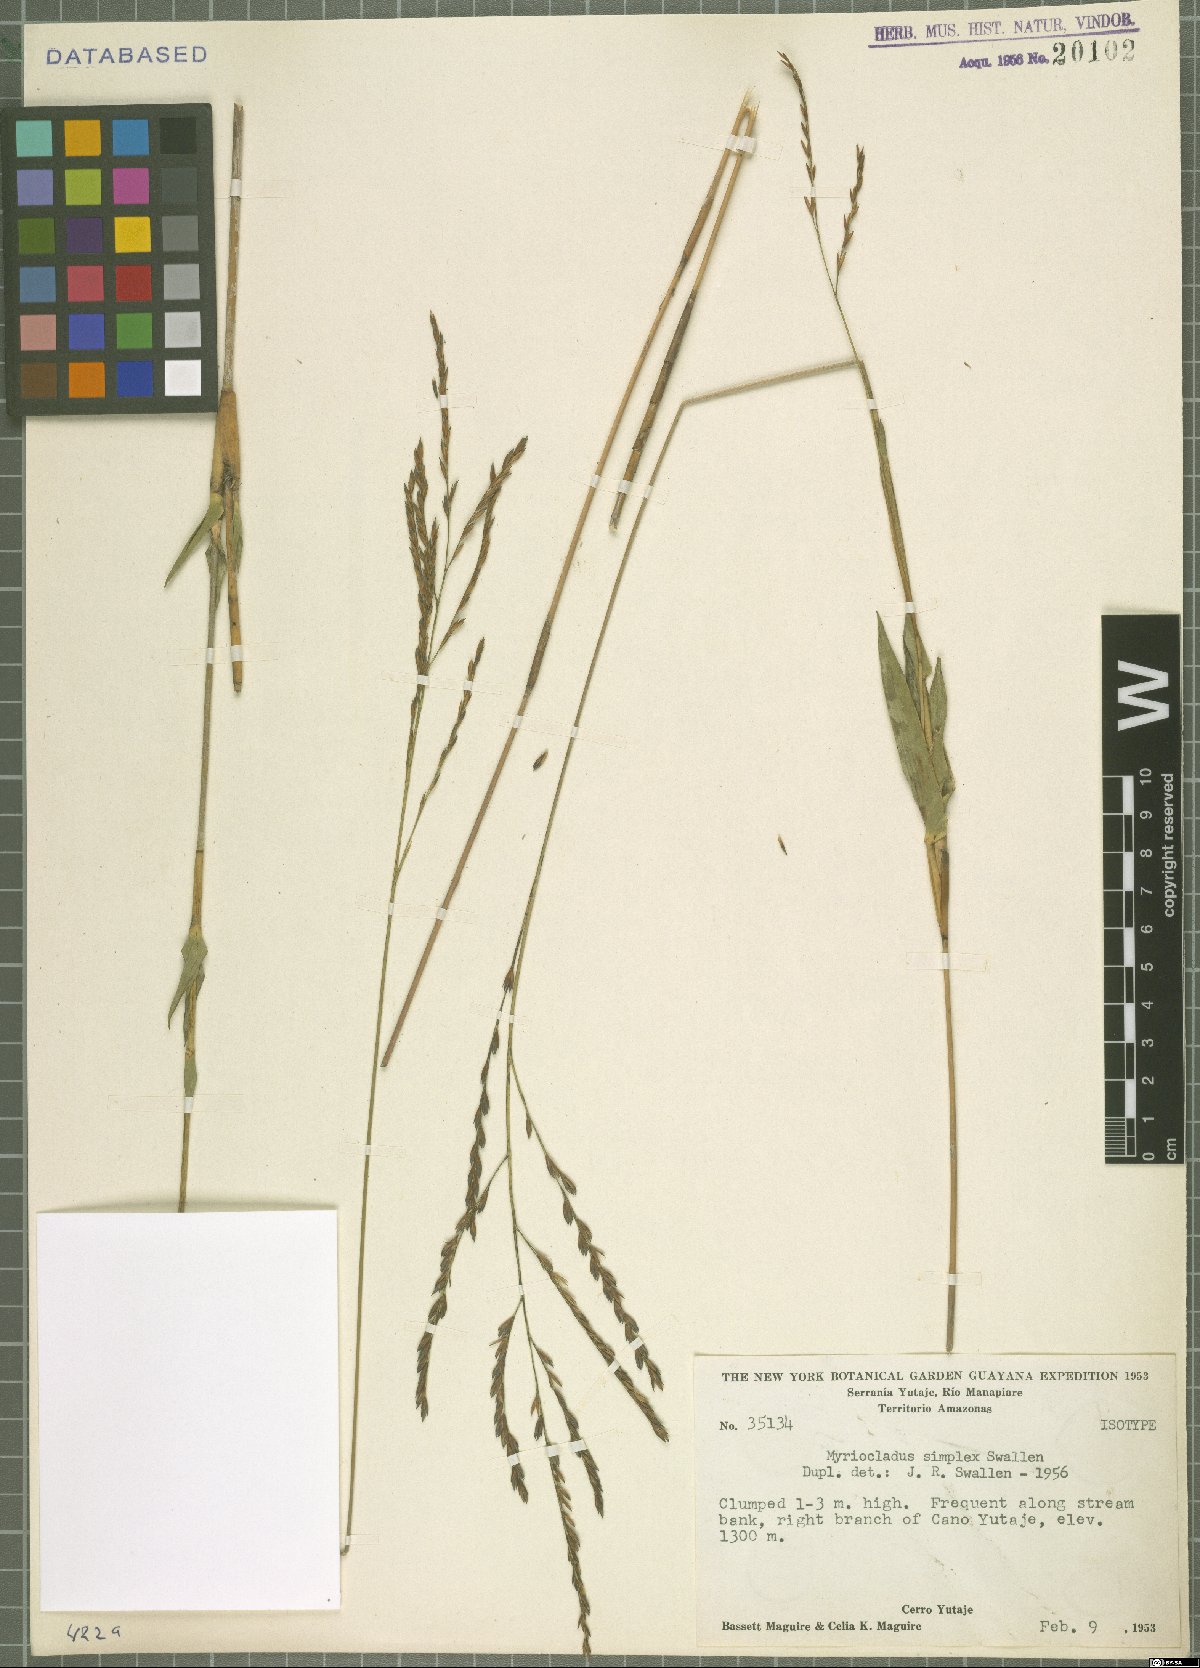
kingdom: Plantae
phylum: Tracheophyta
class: Liliopsida
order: Poales
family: Poaceae
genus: Myriocladus
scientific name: Myriocladus simplex
